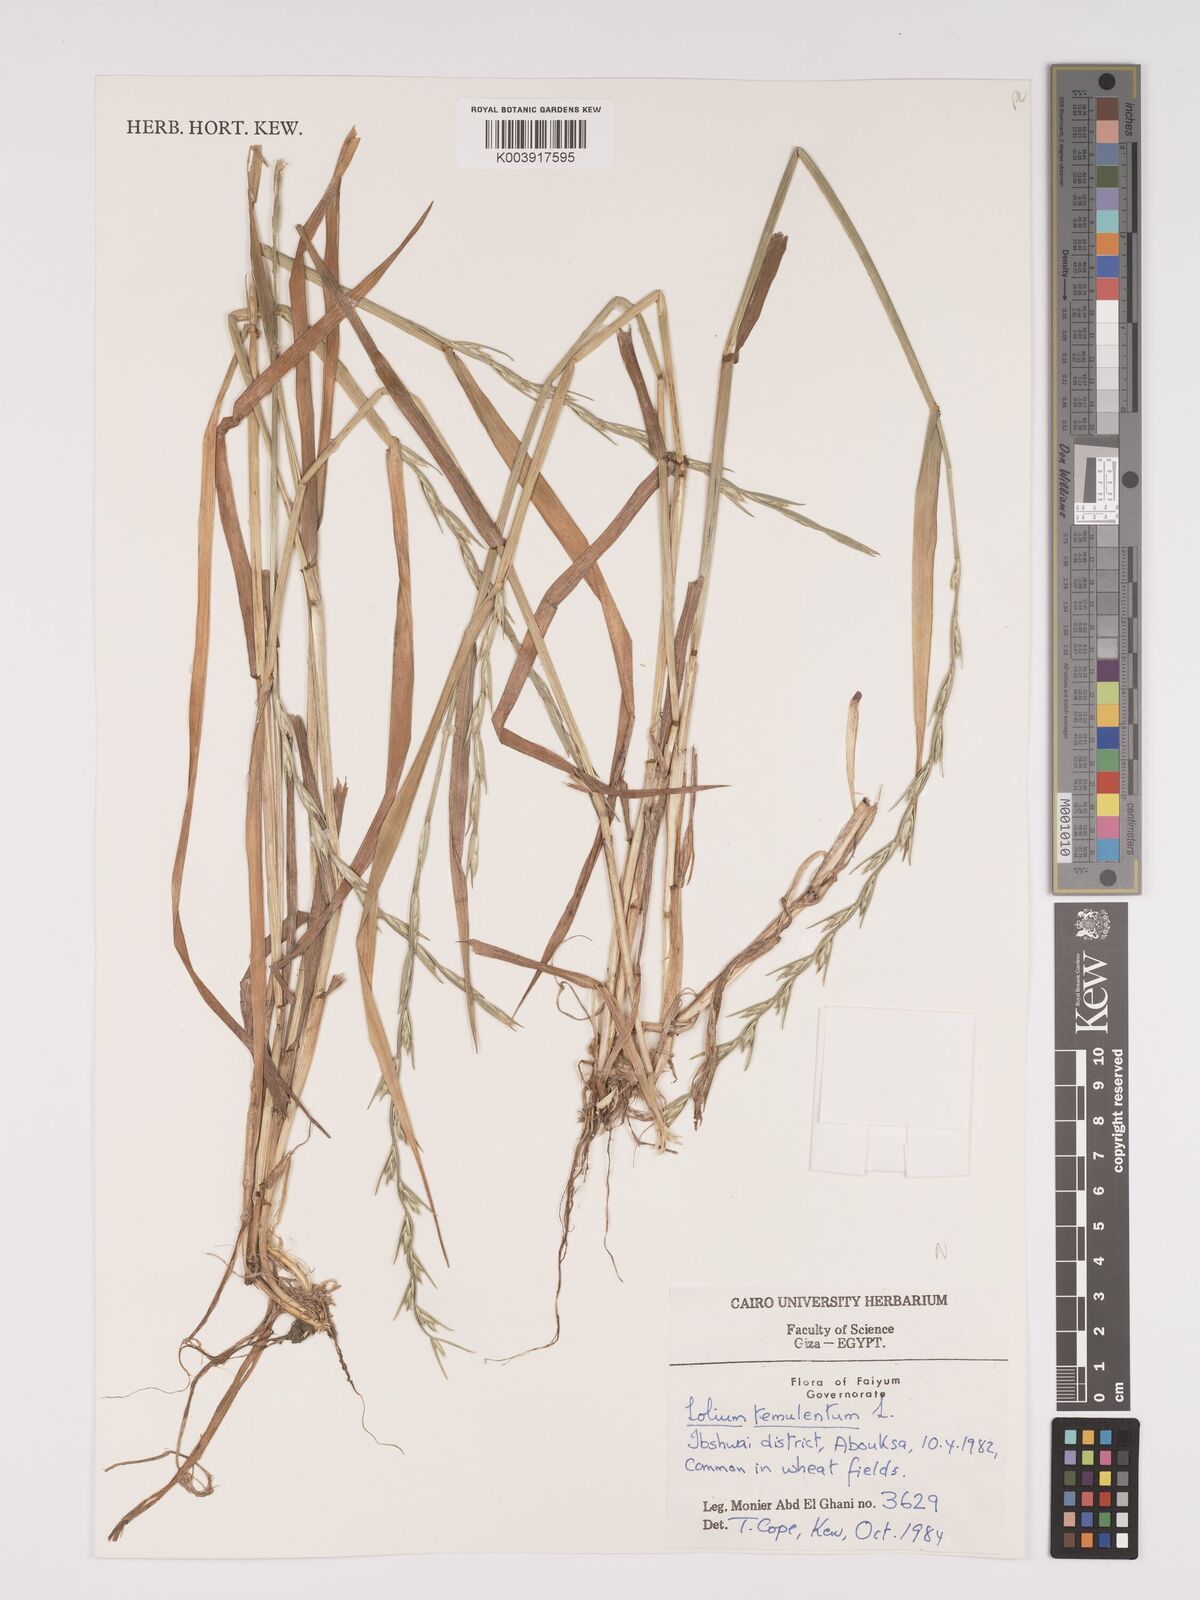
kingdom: Plantae
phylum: Tracheophyta
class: Liliopsida
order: Poales
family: Poaceae
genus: Lolium
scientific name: Lolium temulentum
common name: Darnel
